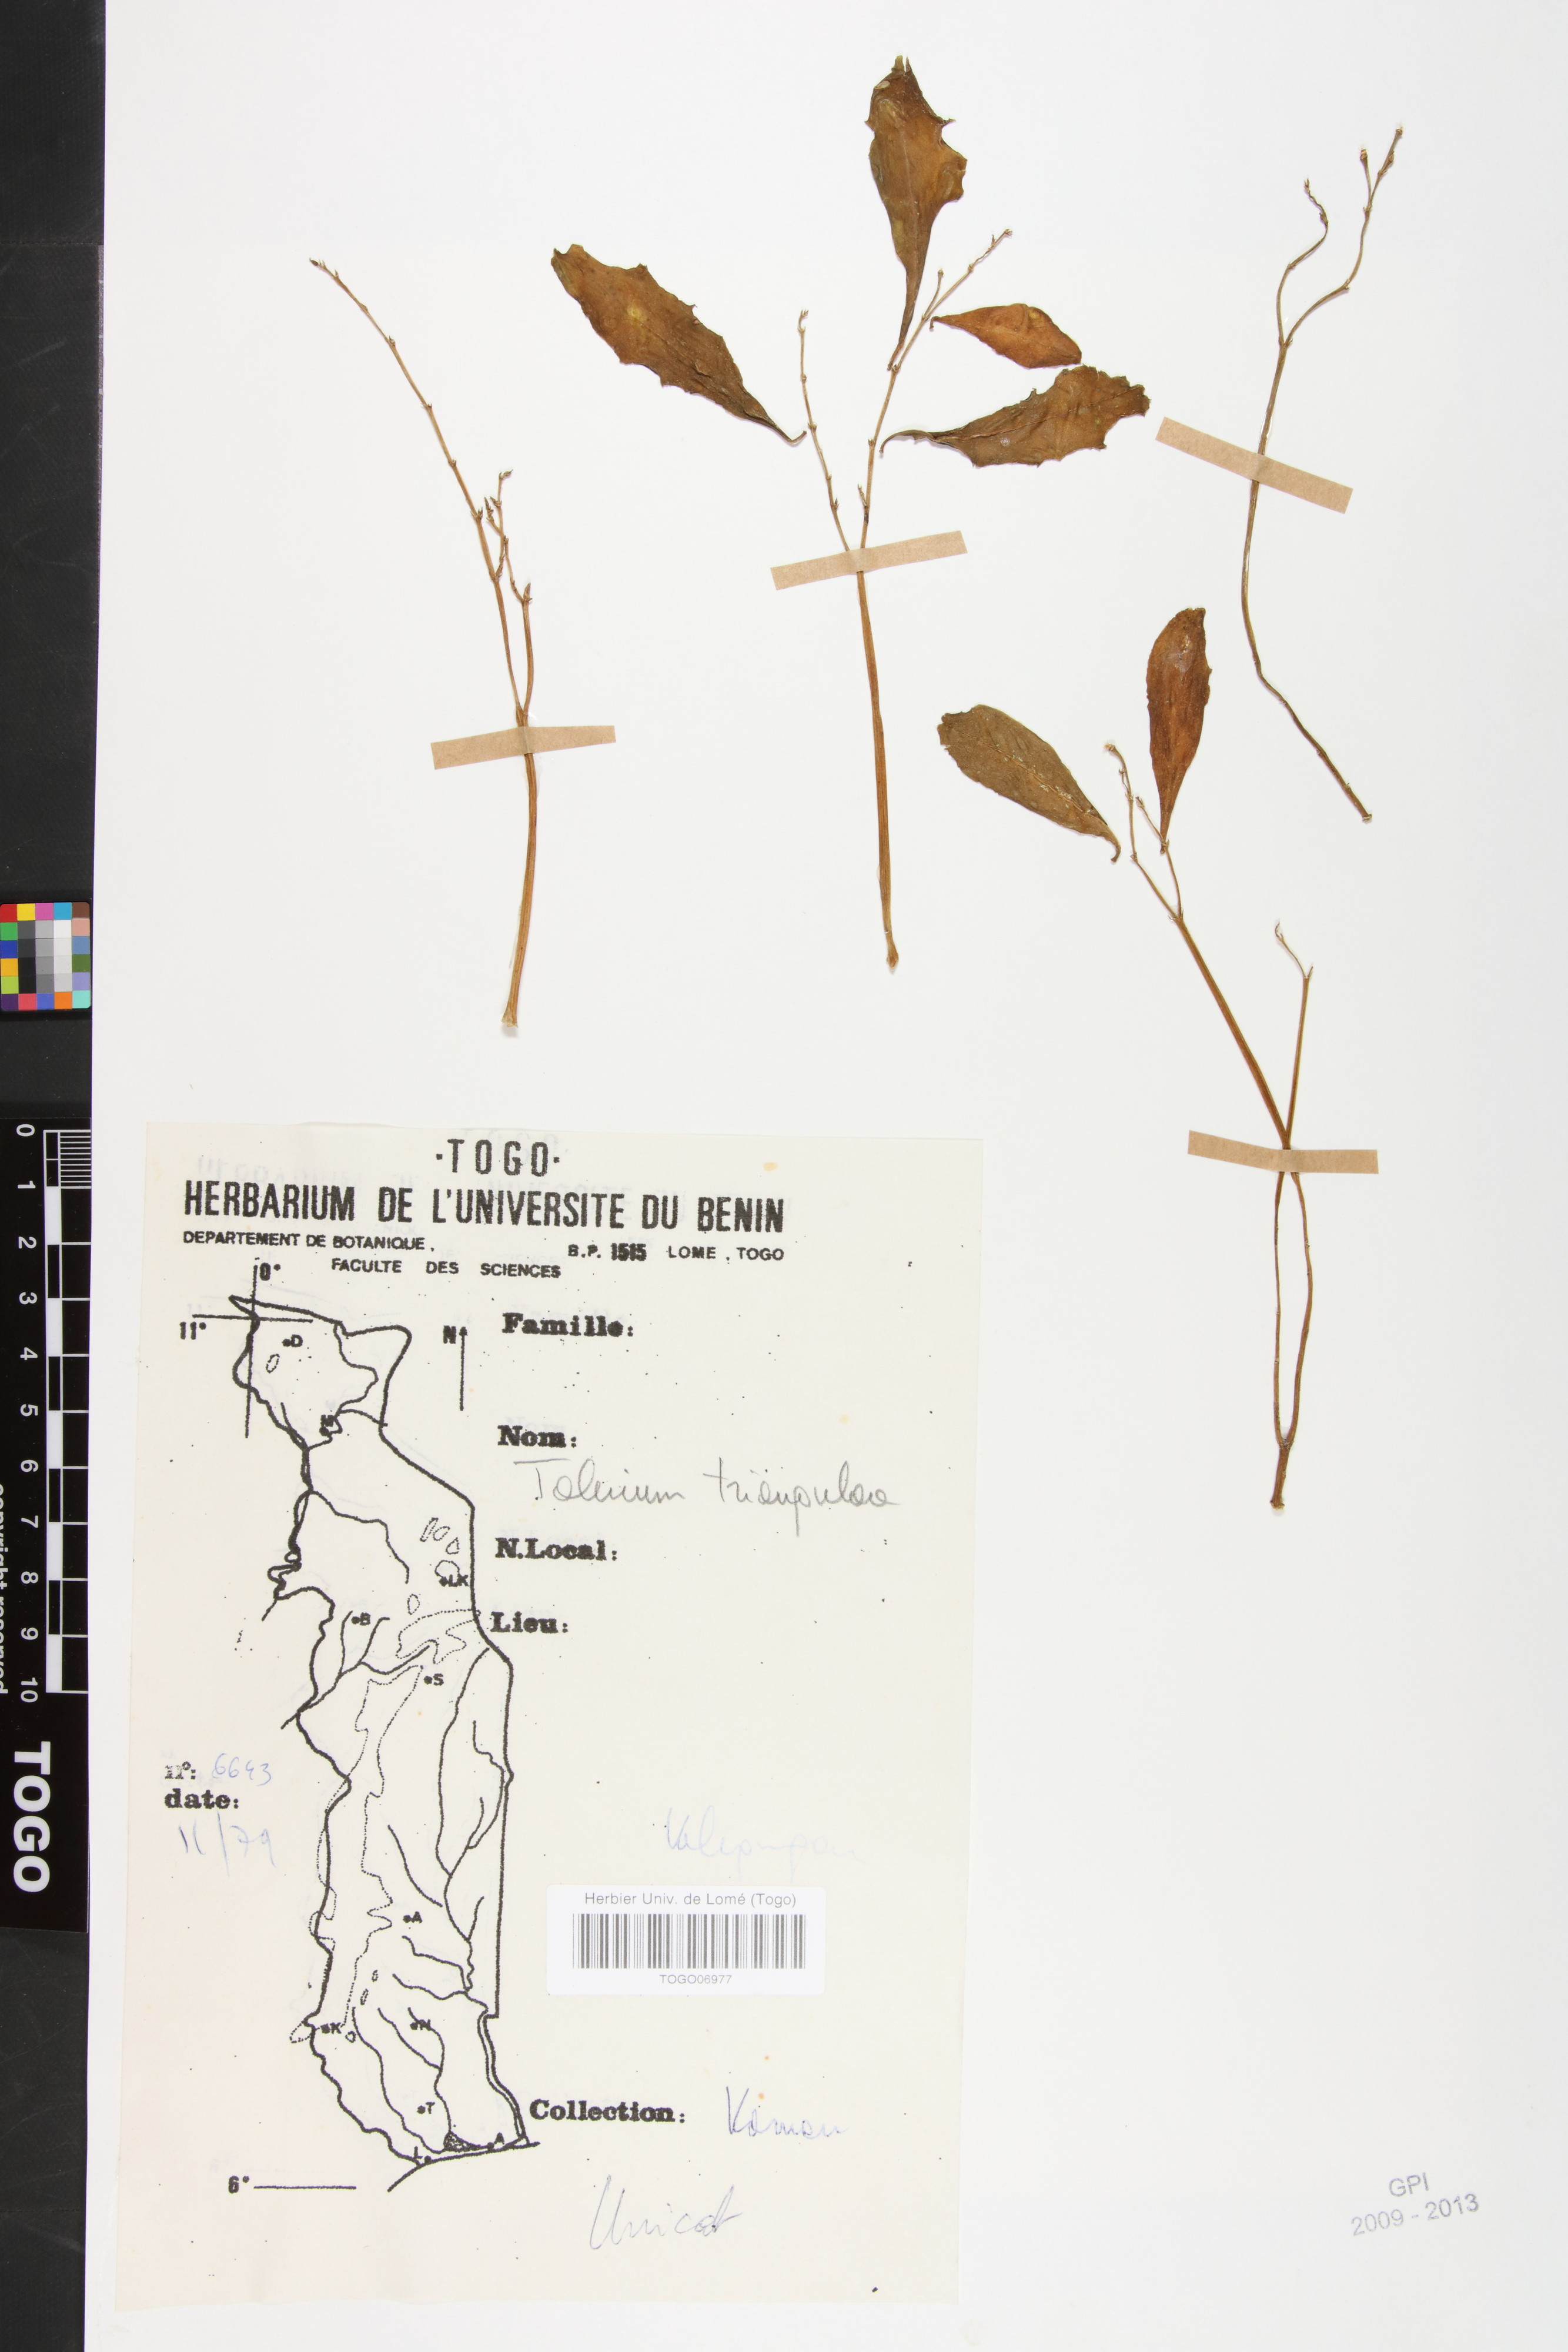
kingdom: Plantae
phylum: Tracheophyta
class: Magnoliopsida
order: Caryophyllales
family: Talinaceae
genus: Talinum
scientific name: Talinum fruticosum
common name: Verdolaga-francesa
